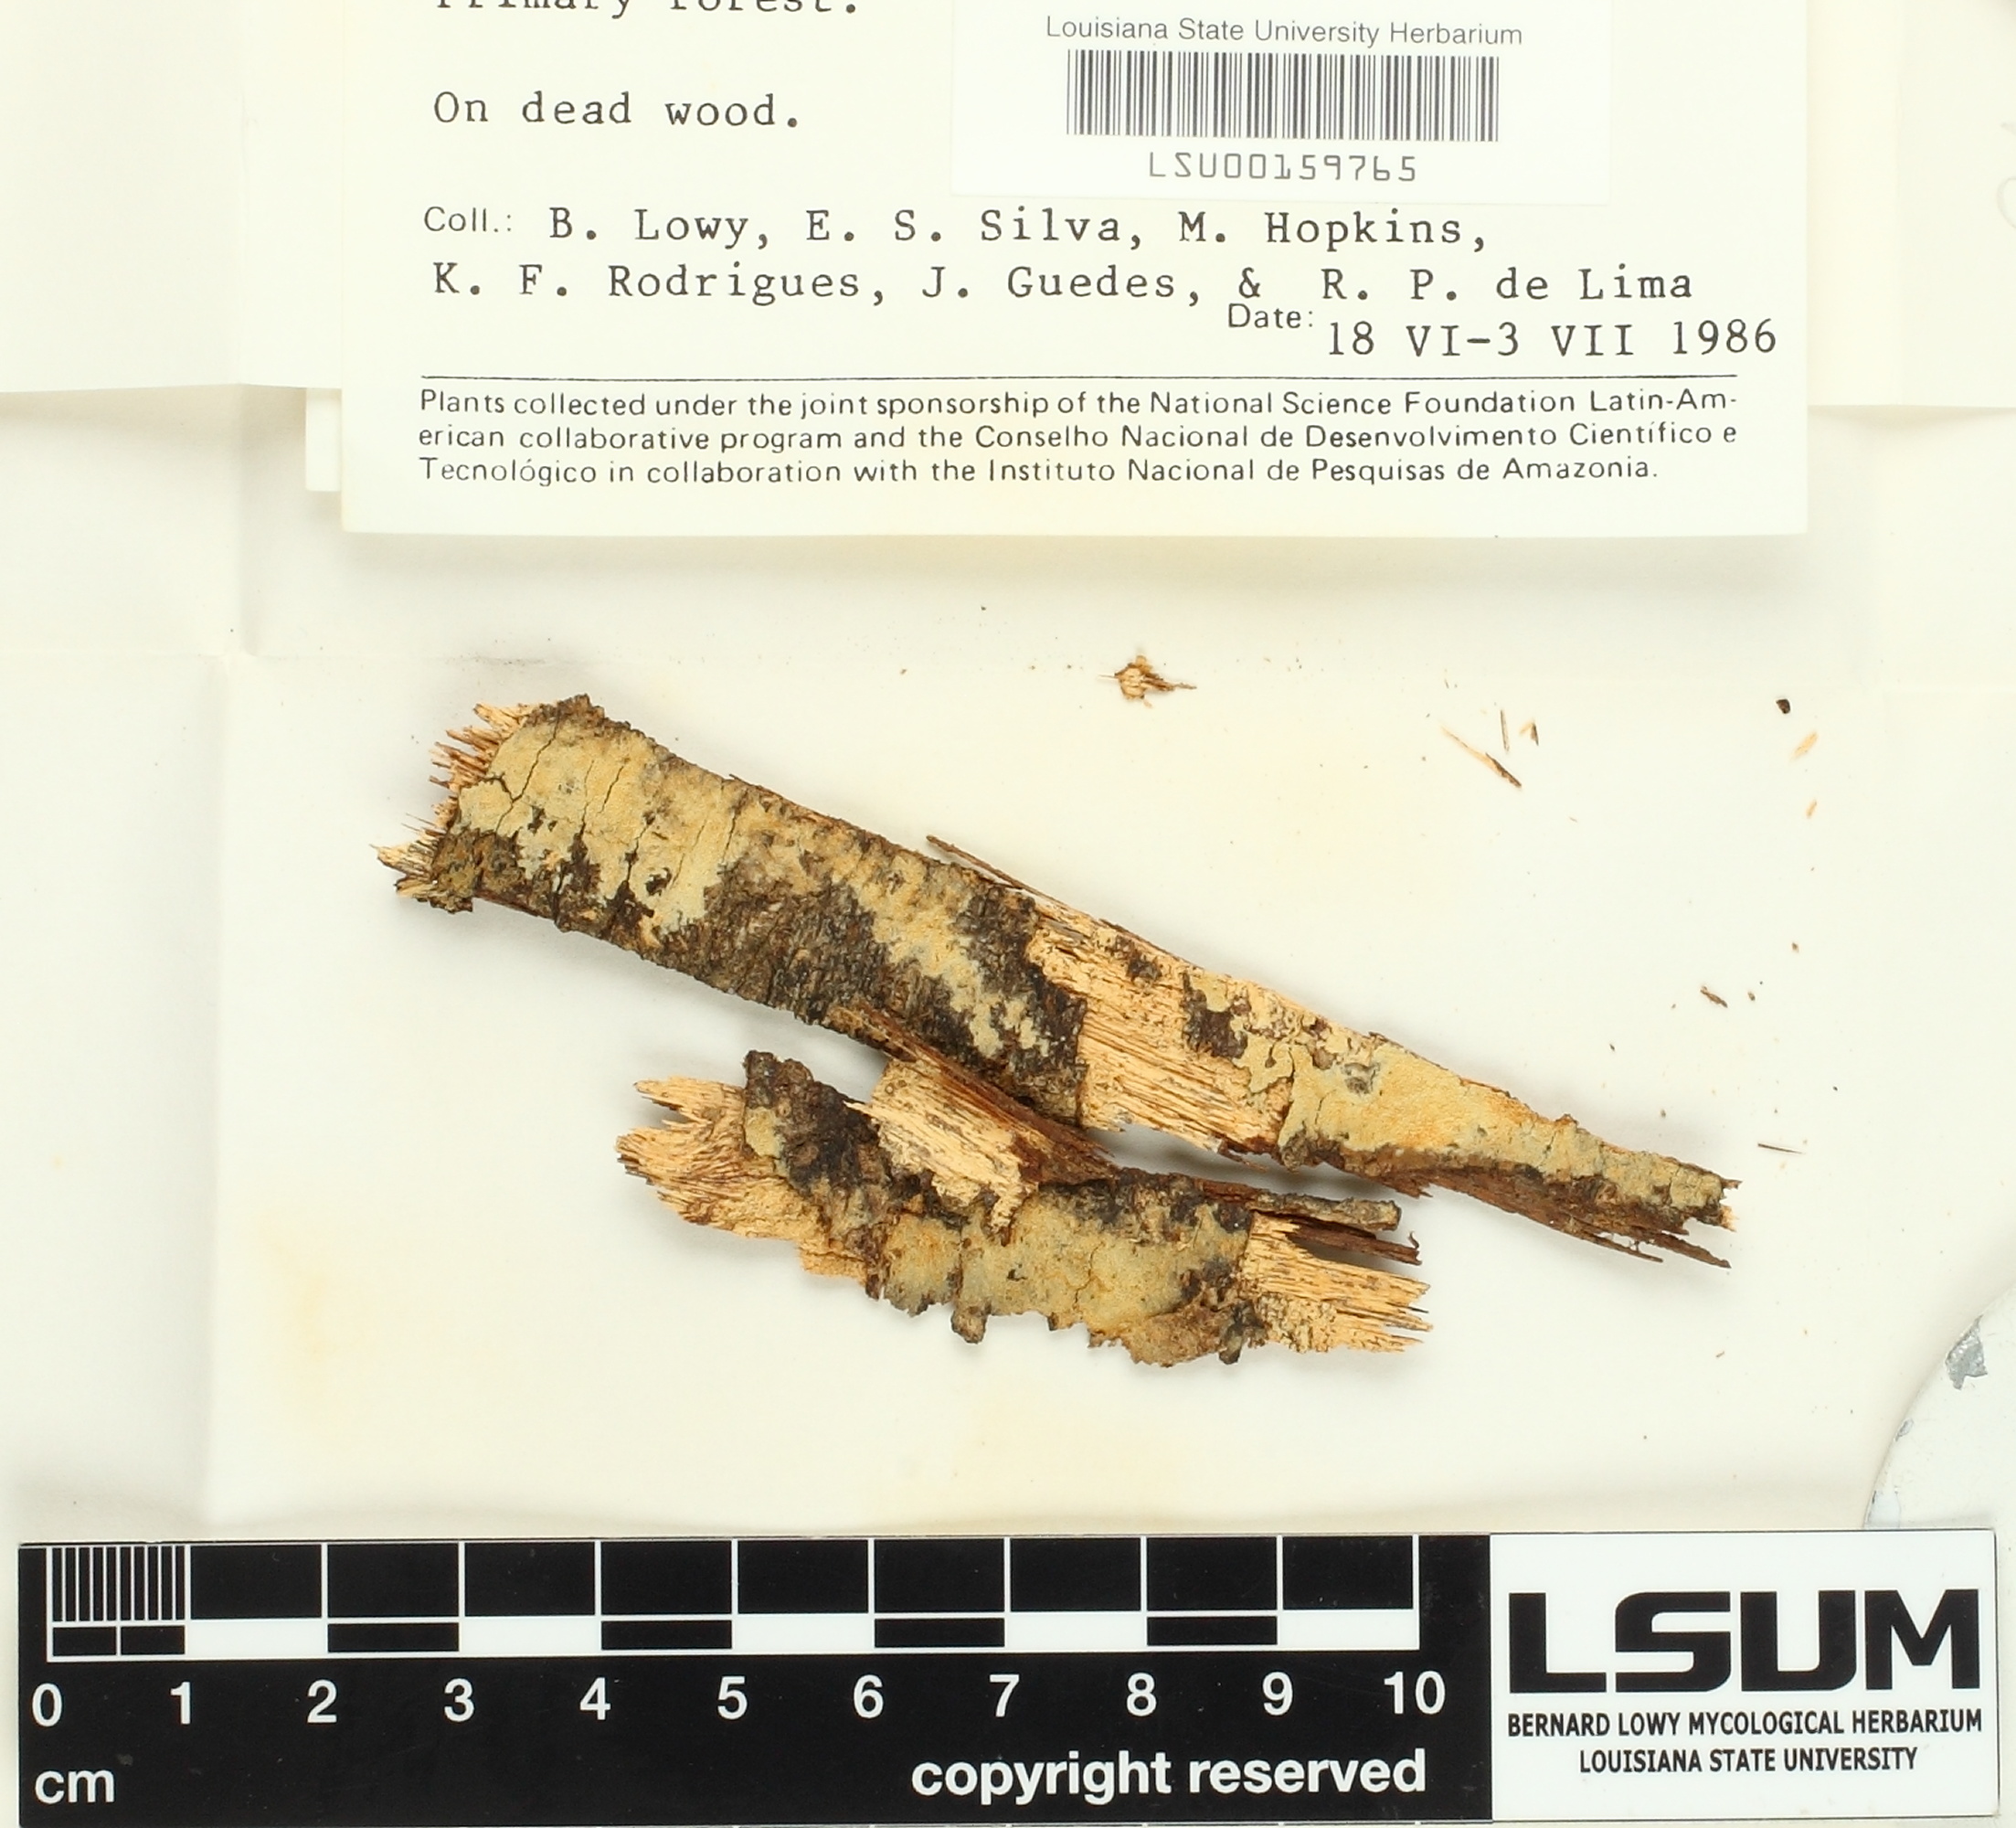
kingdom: Fungi
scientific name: Fungi
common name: Fungi
